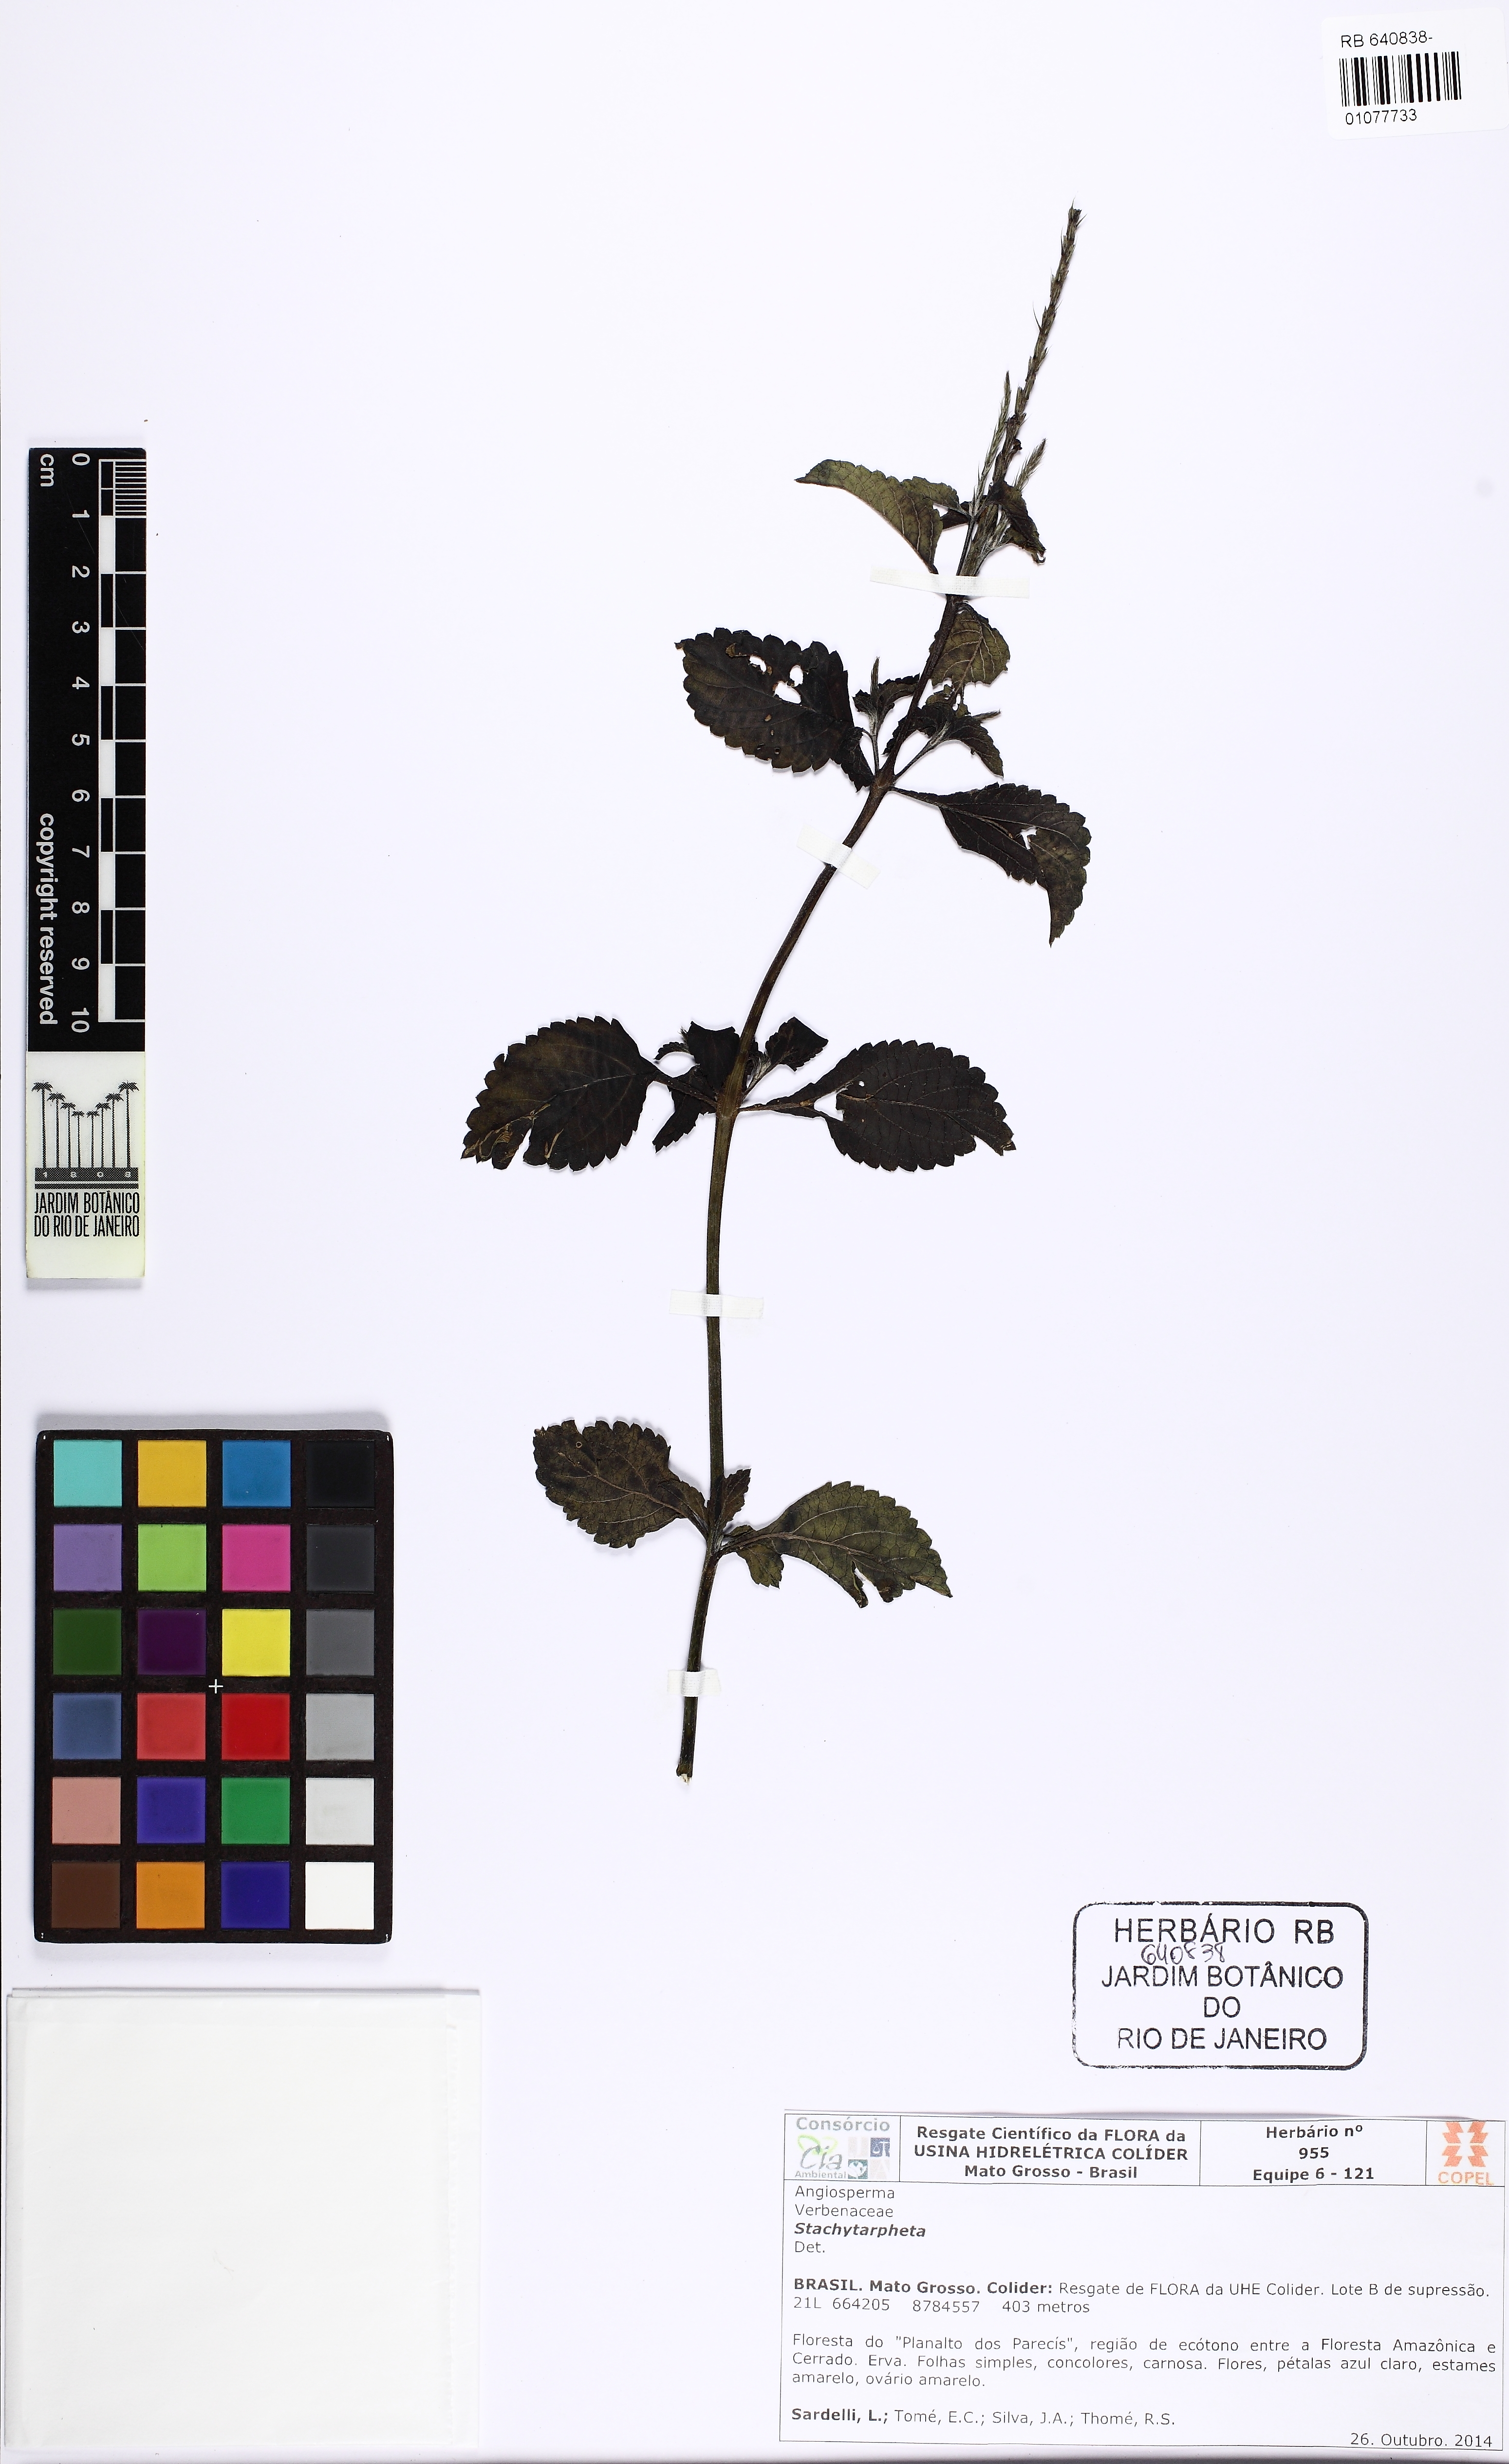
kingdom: Plantae
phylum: Tracheophyta
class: Magnoliopsida
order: Lamiales
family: Verbenaceae
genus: Stachytarpheta
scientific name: Stachytarpheta cayennensis
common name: Cayenne porterweed
